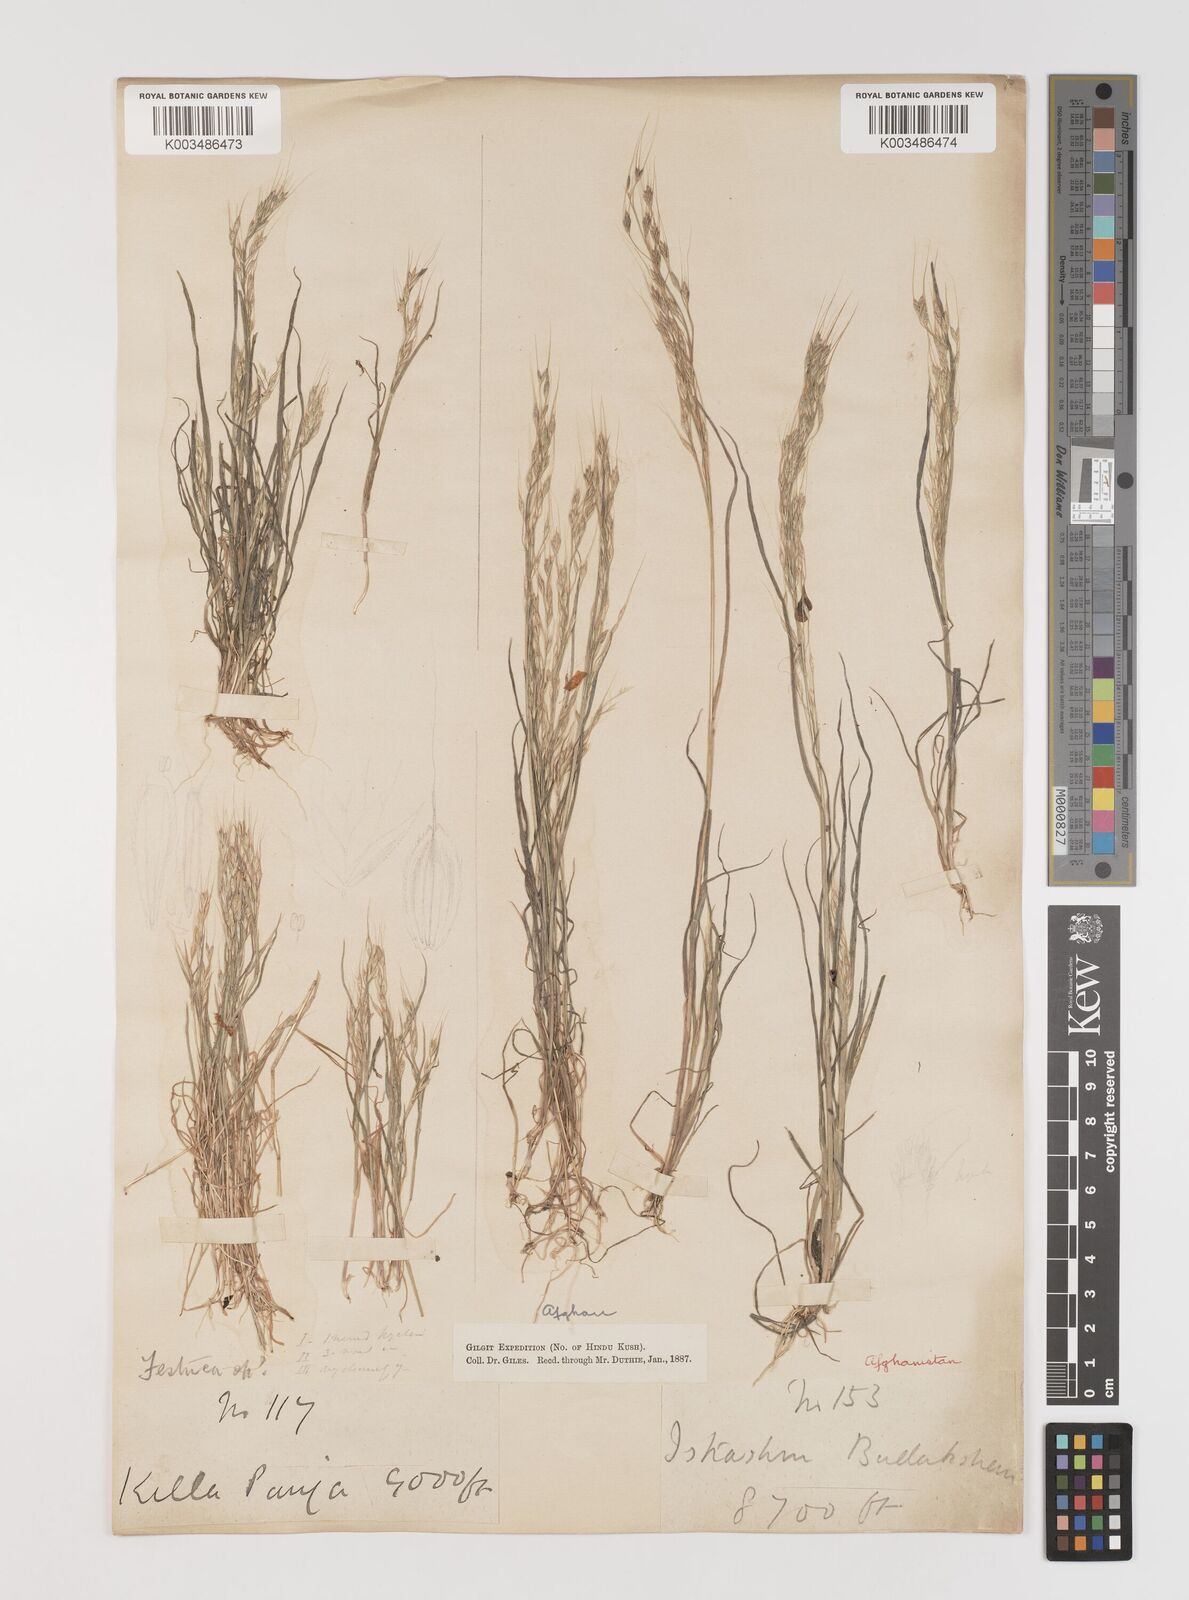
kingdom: Plantae
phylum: Tracheophyta
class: Liliopsida
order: Poales
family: Poaceae
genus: Bromus
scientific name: Bromus gracillimus
